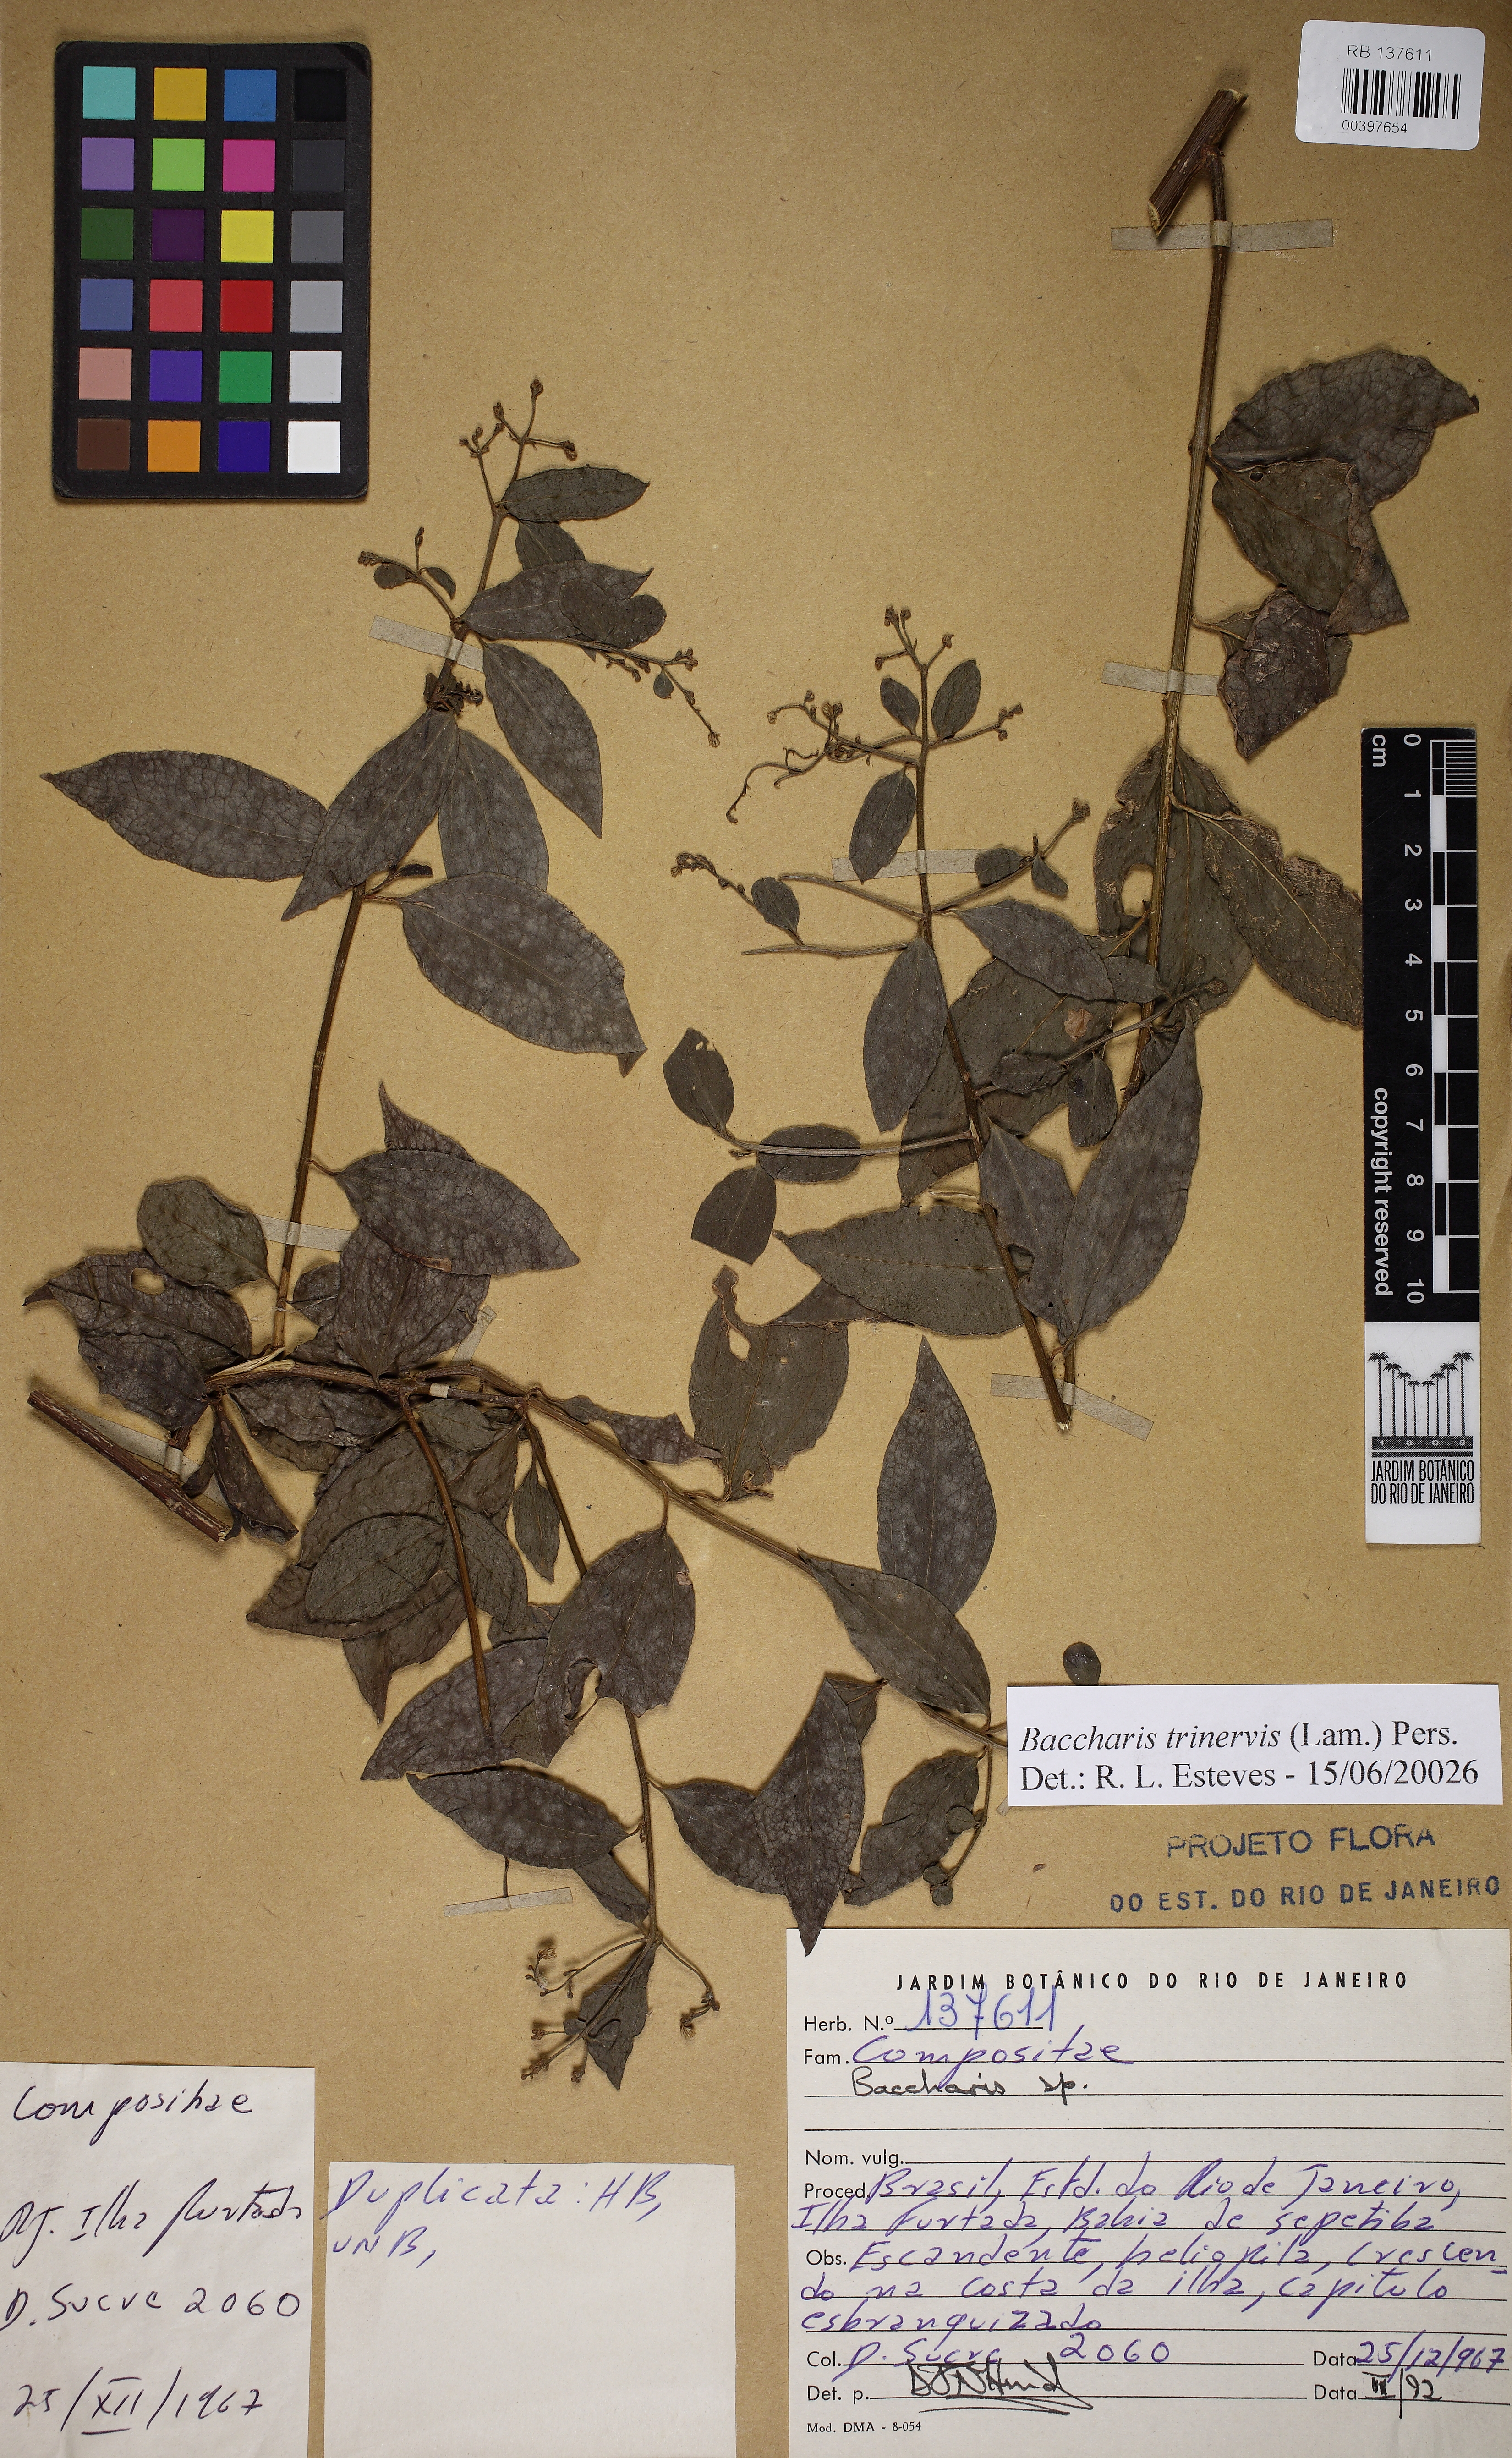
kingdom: Plantae
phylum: Tracheophyta
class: Magnoliopsida
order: Asterales
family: Asteraceae
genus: Baccharis
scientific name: Baccharis trinervis
